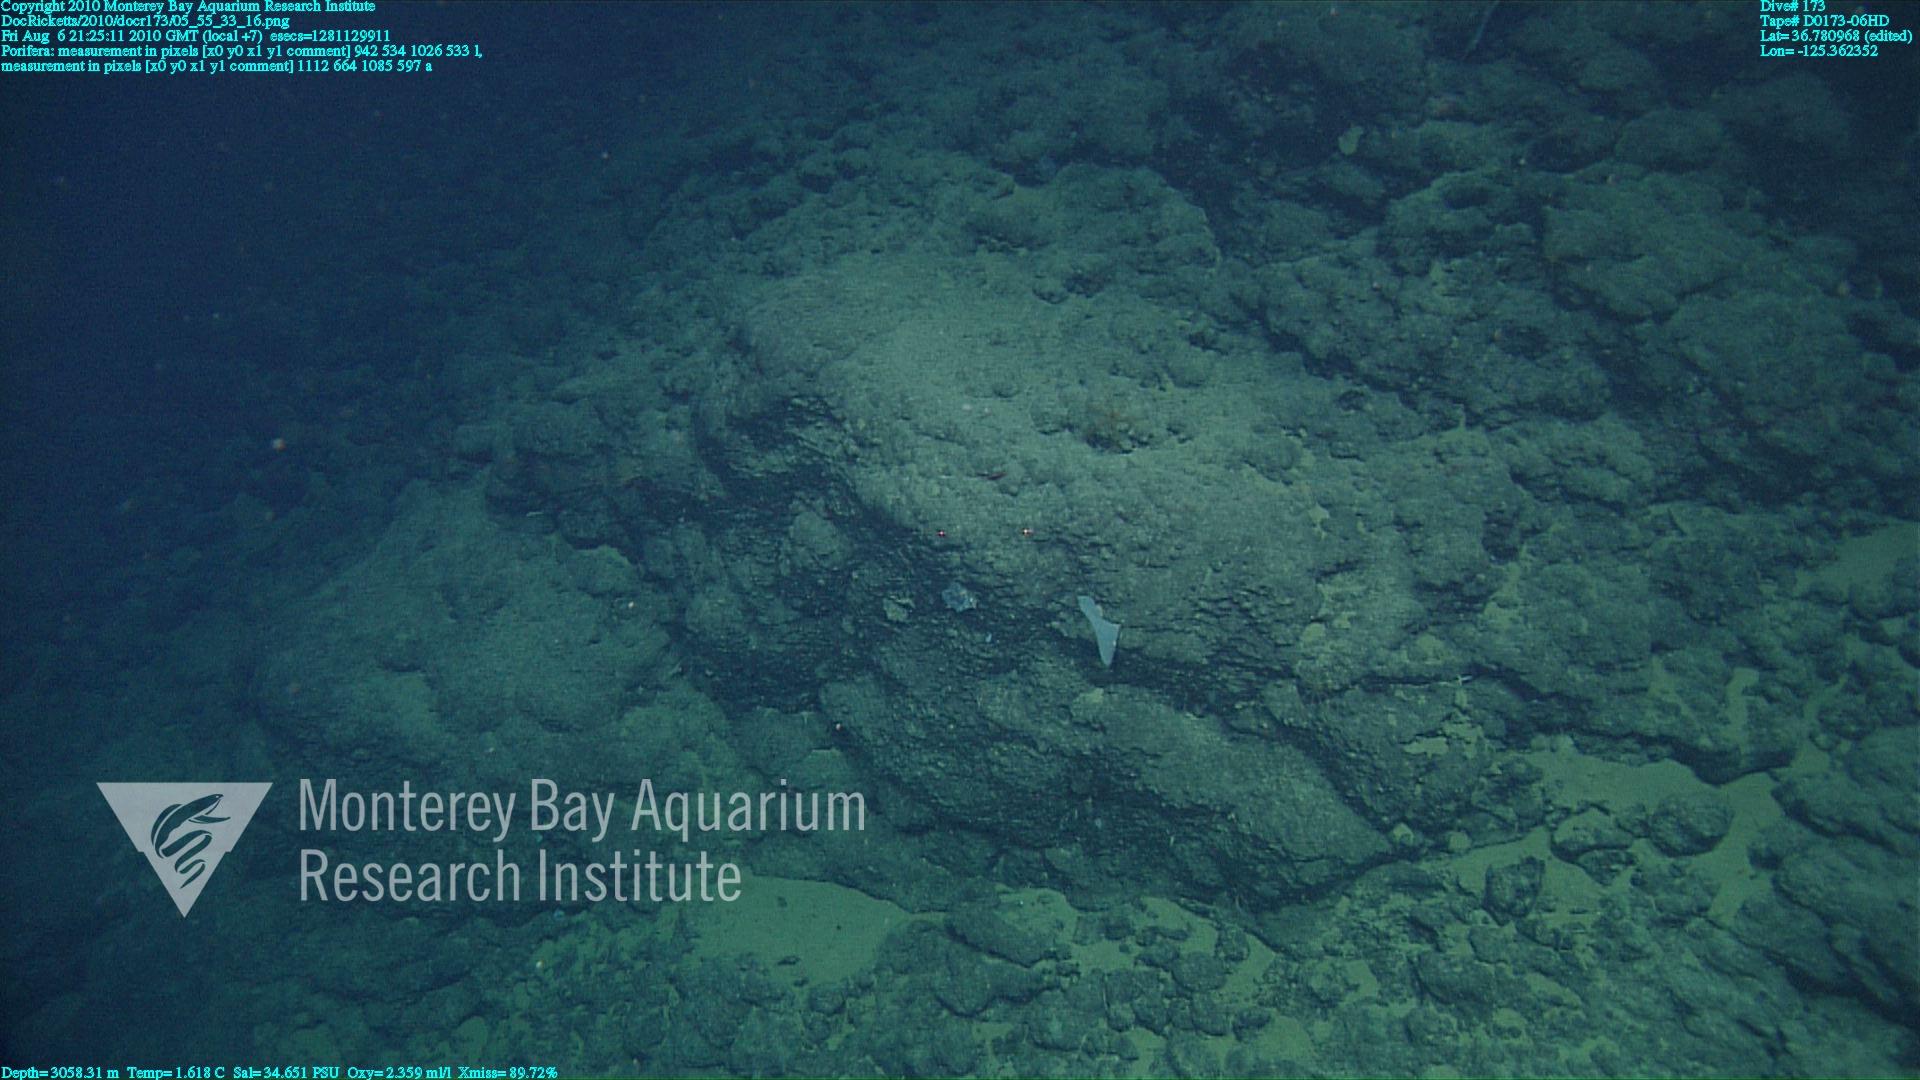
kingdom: Animalia
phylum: Porifera
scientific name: Porifera
